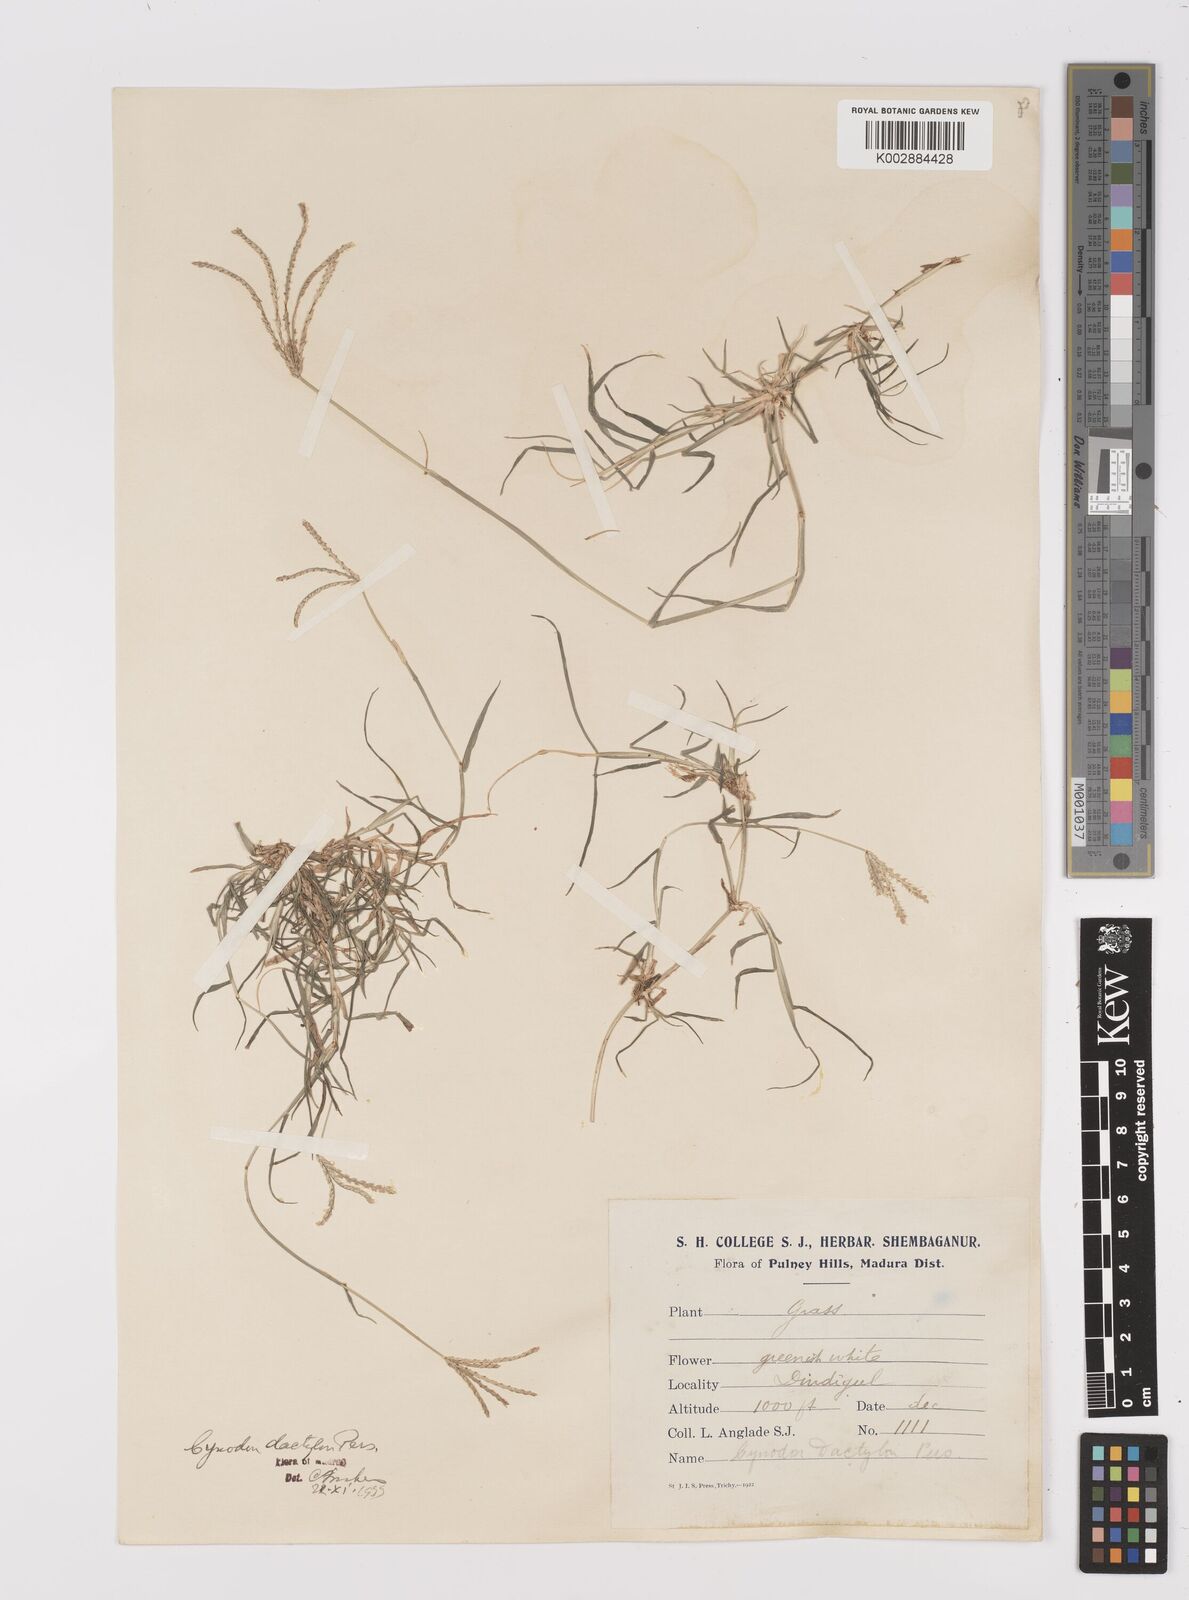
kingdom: Plantae
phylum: Tracheophyta
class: Liliopsida
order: Poales
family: Poaceae
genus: Cynodon
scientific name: Cynodon dactylon
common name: Bermuda grass
